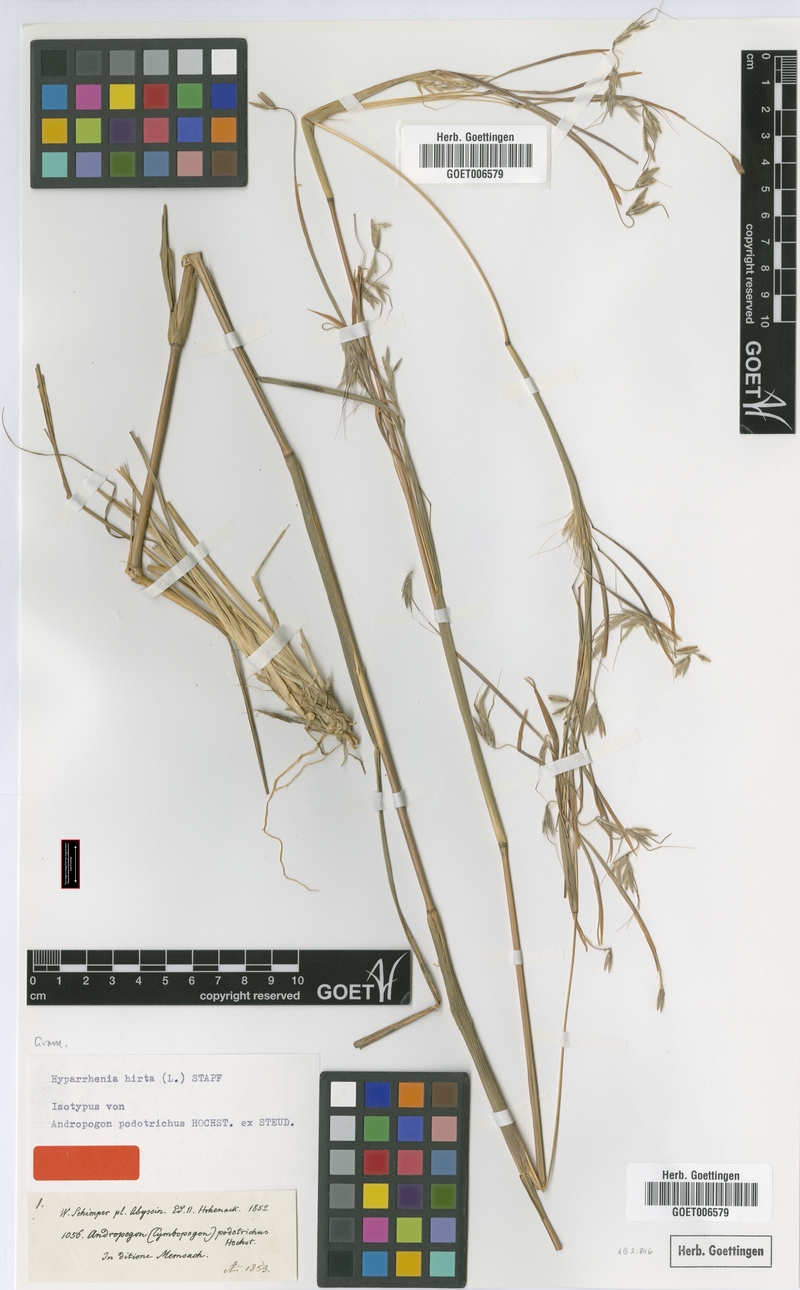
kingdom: Plantae
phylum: Tracheophyta
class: Liliopsida
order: Poales
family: Poaceae
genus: Hyparrhenia
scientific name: Hyparrhenia hirta
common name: Thatching grass
